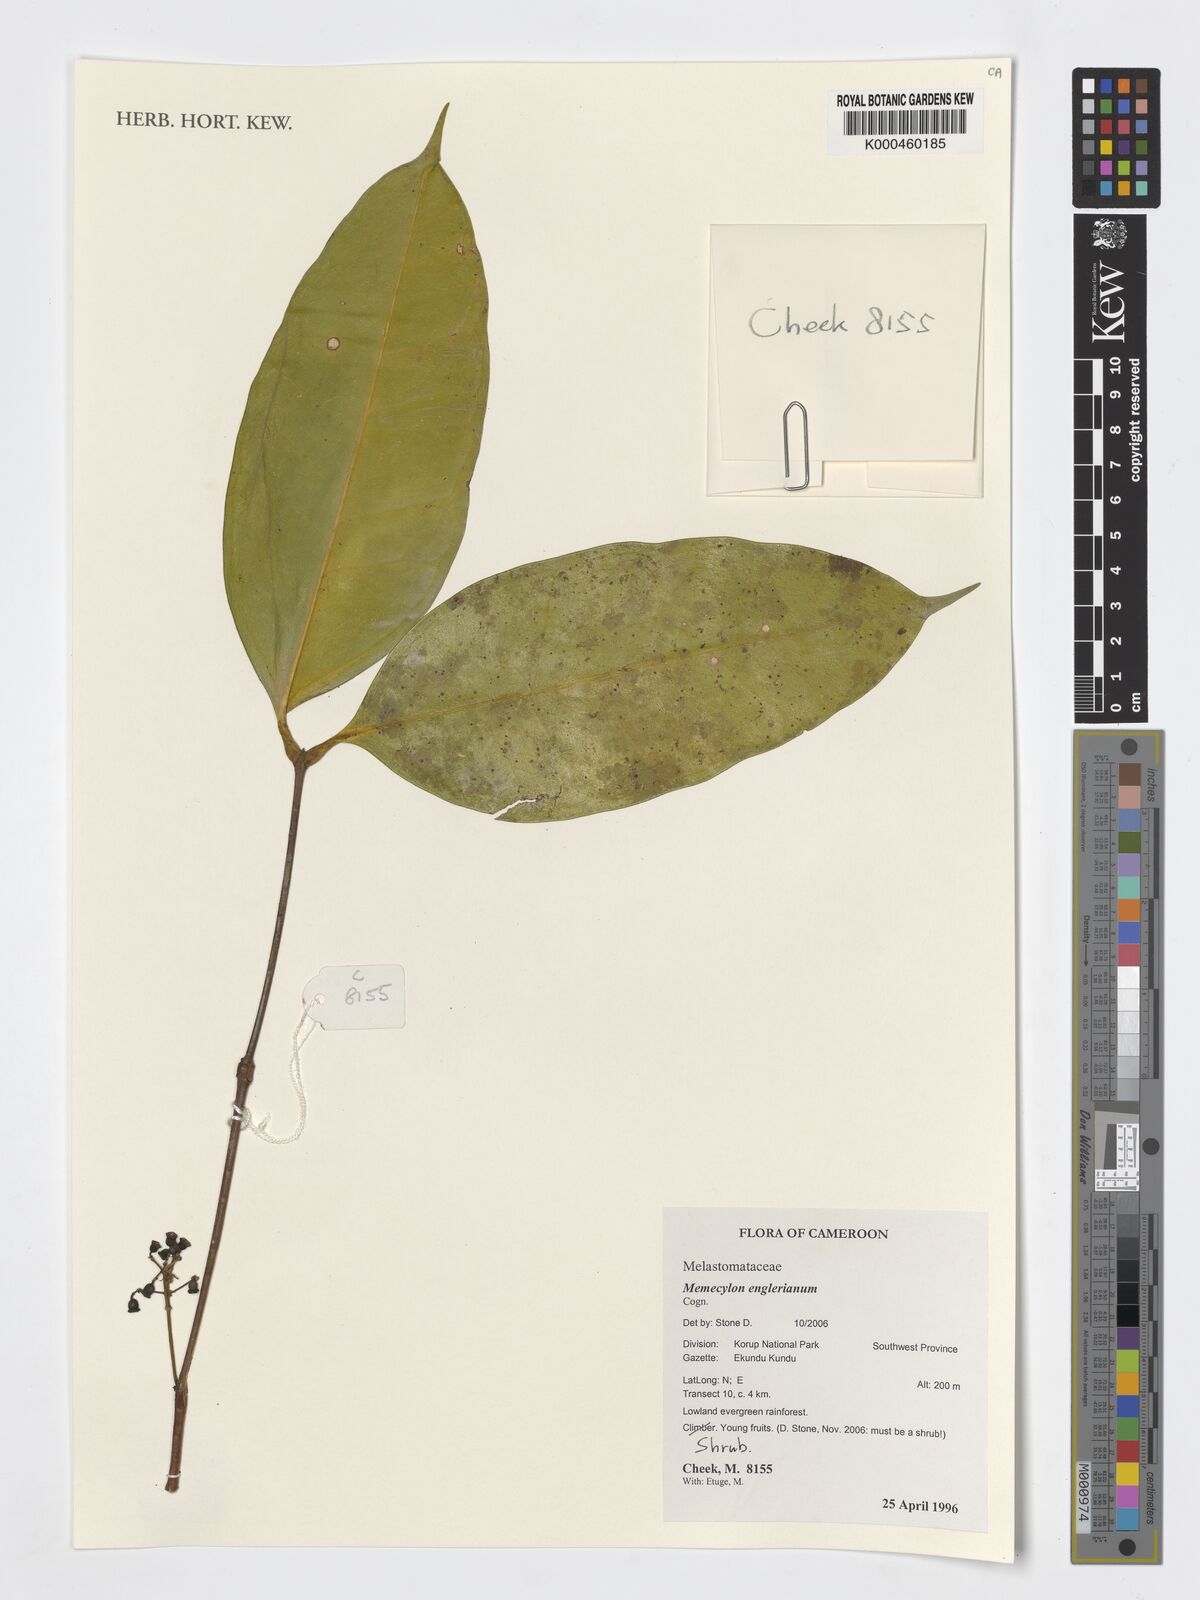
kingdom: Plantae
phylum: Tracheophyta
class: Magnoliopsida
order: Myrtales
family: Melastomataceae
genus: Memecylon
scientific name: Memecylon englerianum
